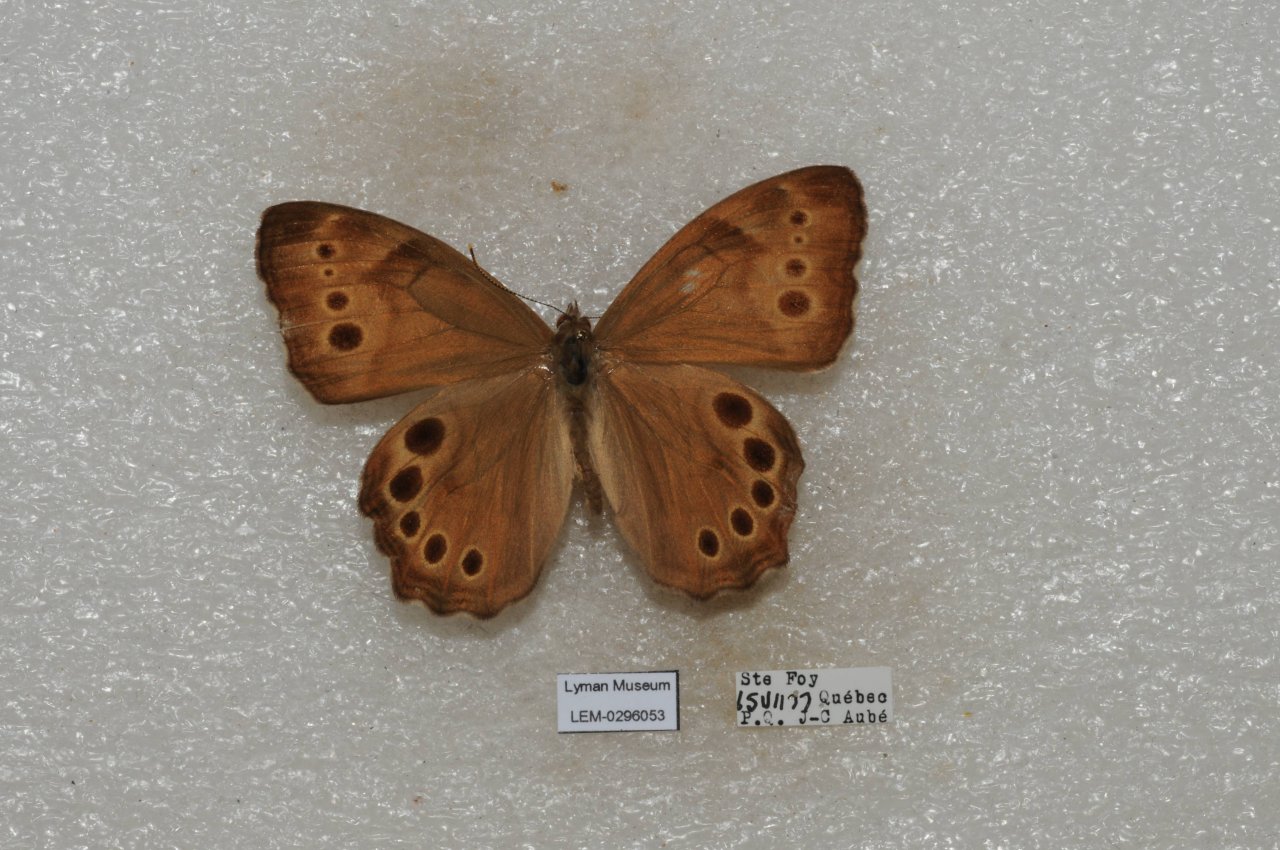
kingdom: Animalia
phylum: Arthropoda
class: Insecta
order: Lepidoptera
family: Nymphalidae
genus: Lethe
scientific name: Lethe anthedon
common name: Northern Pearly-Eye
